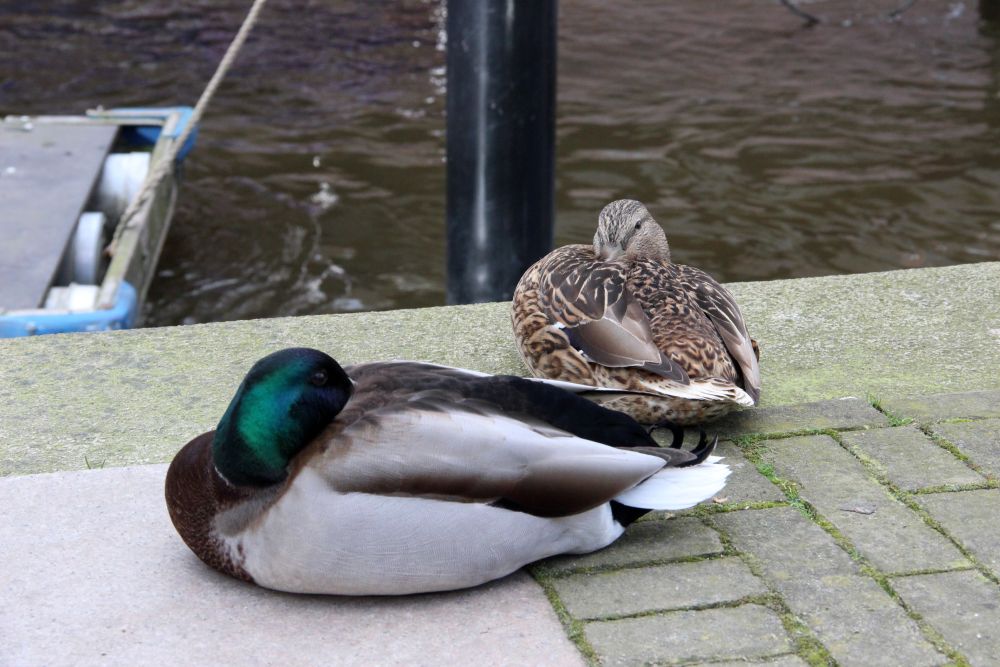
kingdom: Animalia
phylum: Chordata
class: Aves
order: Anseriformes
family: Anatidae
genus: Anas
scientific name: Anas platyrhynchos
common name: Mallard
